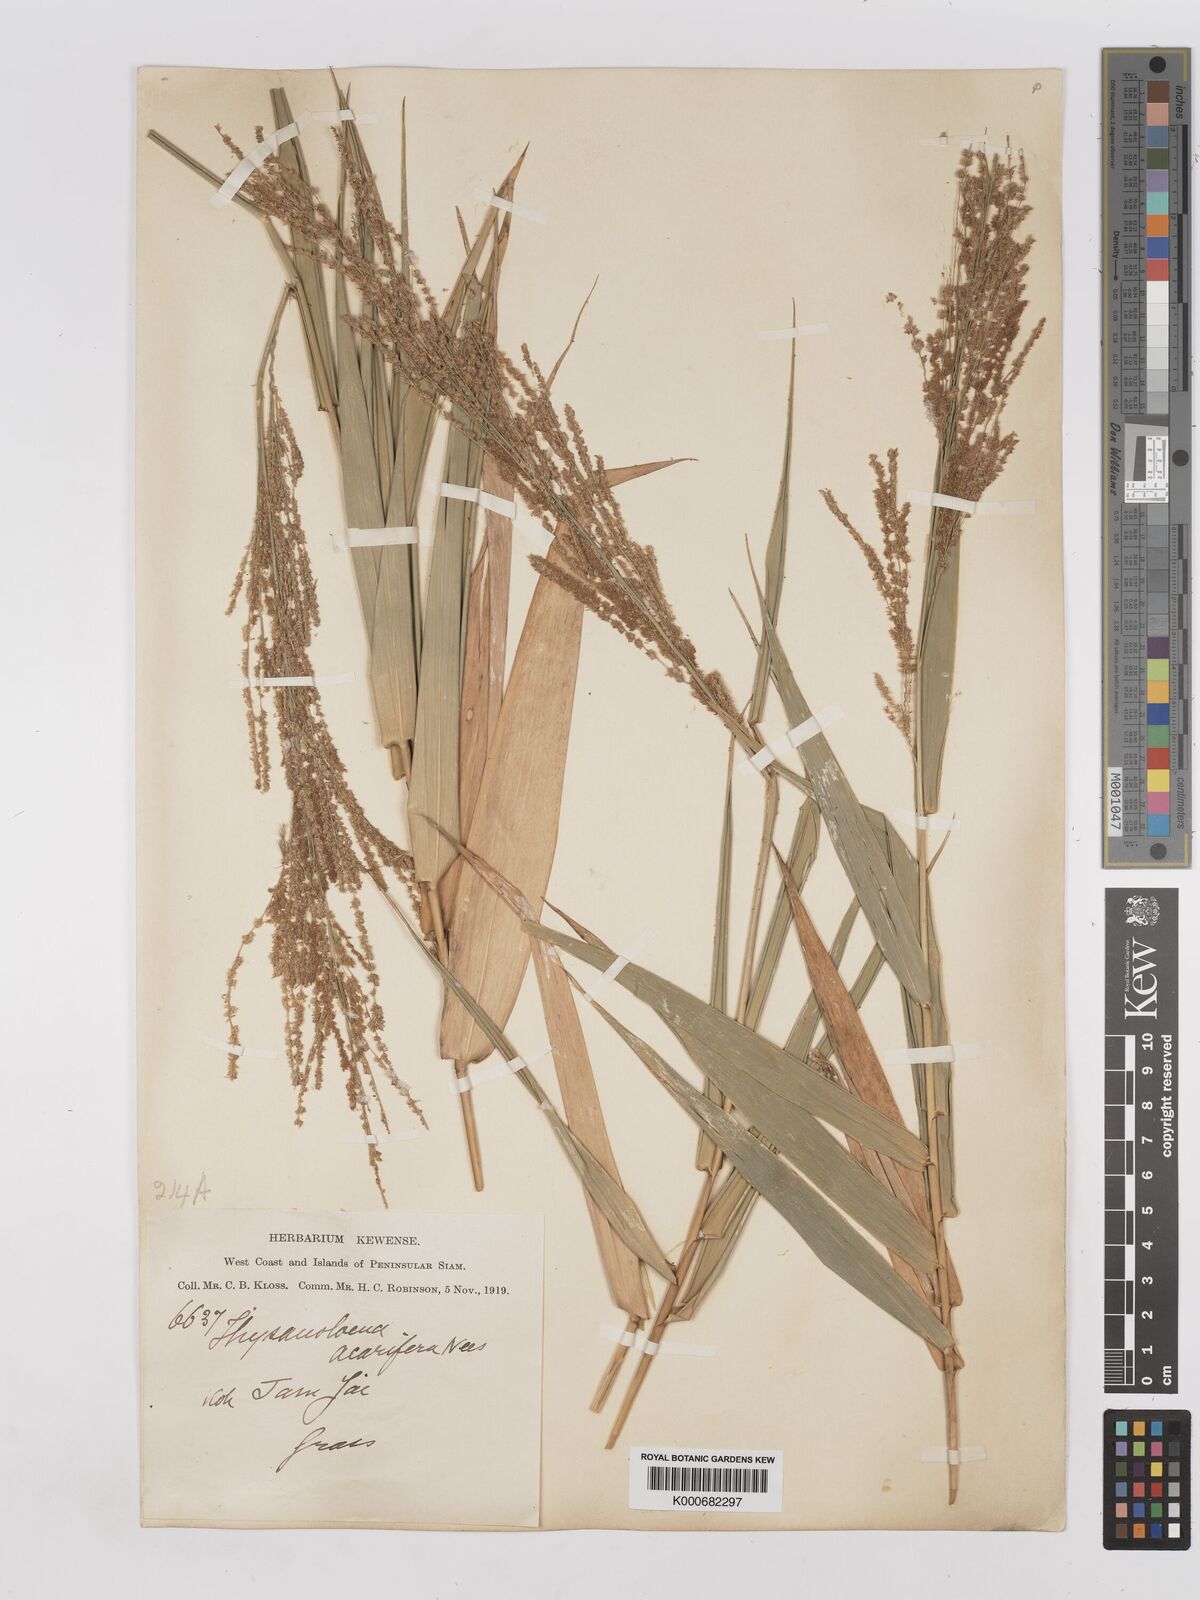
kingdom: Plantae
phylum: Tracheophyta
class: Liliopsida
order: Poales
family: Poaceae
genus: Thysanolaena
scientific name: Thysanolaena latifolia
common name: Tiger grass
